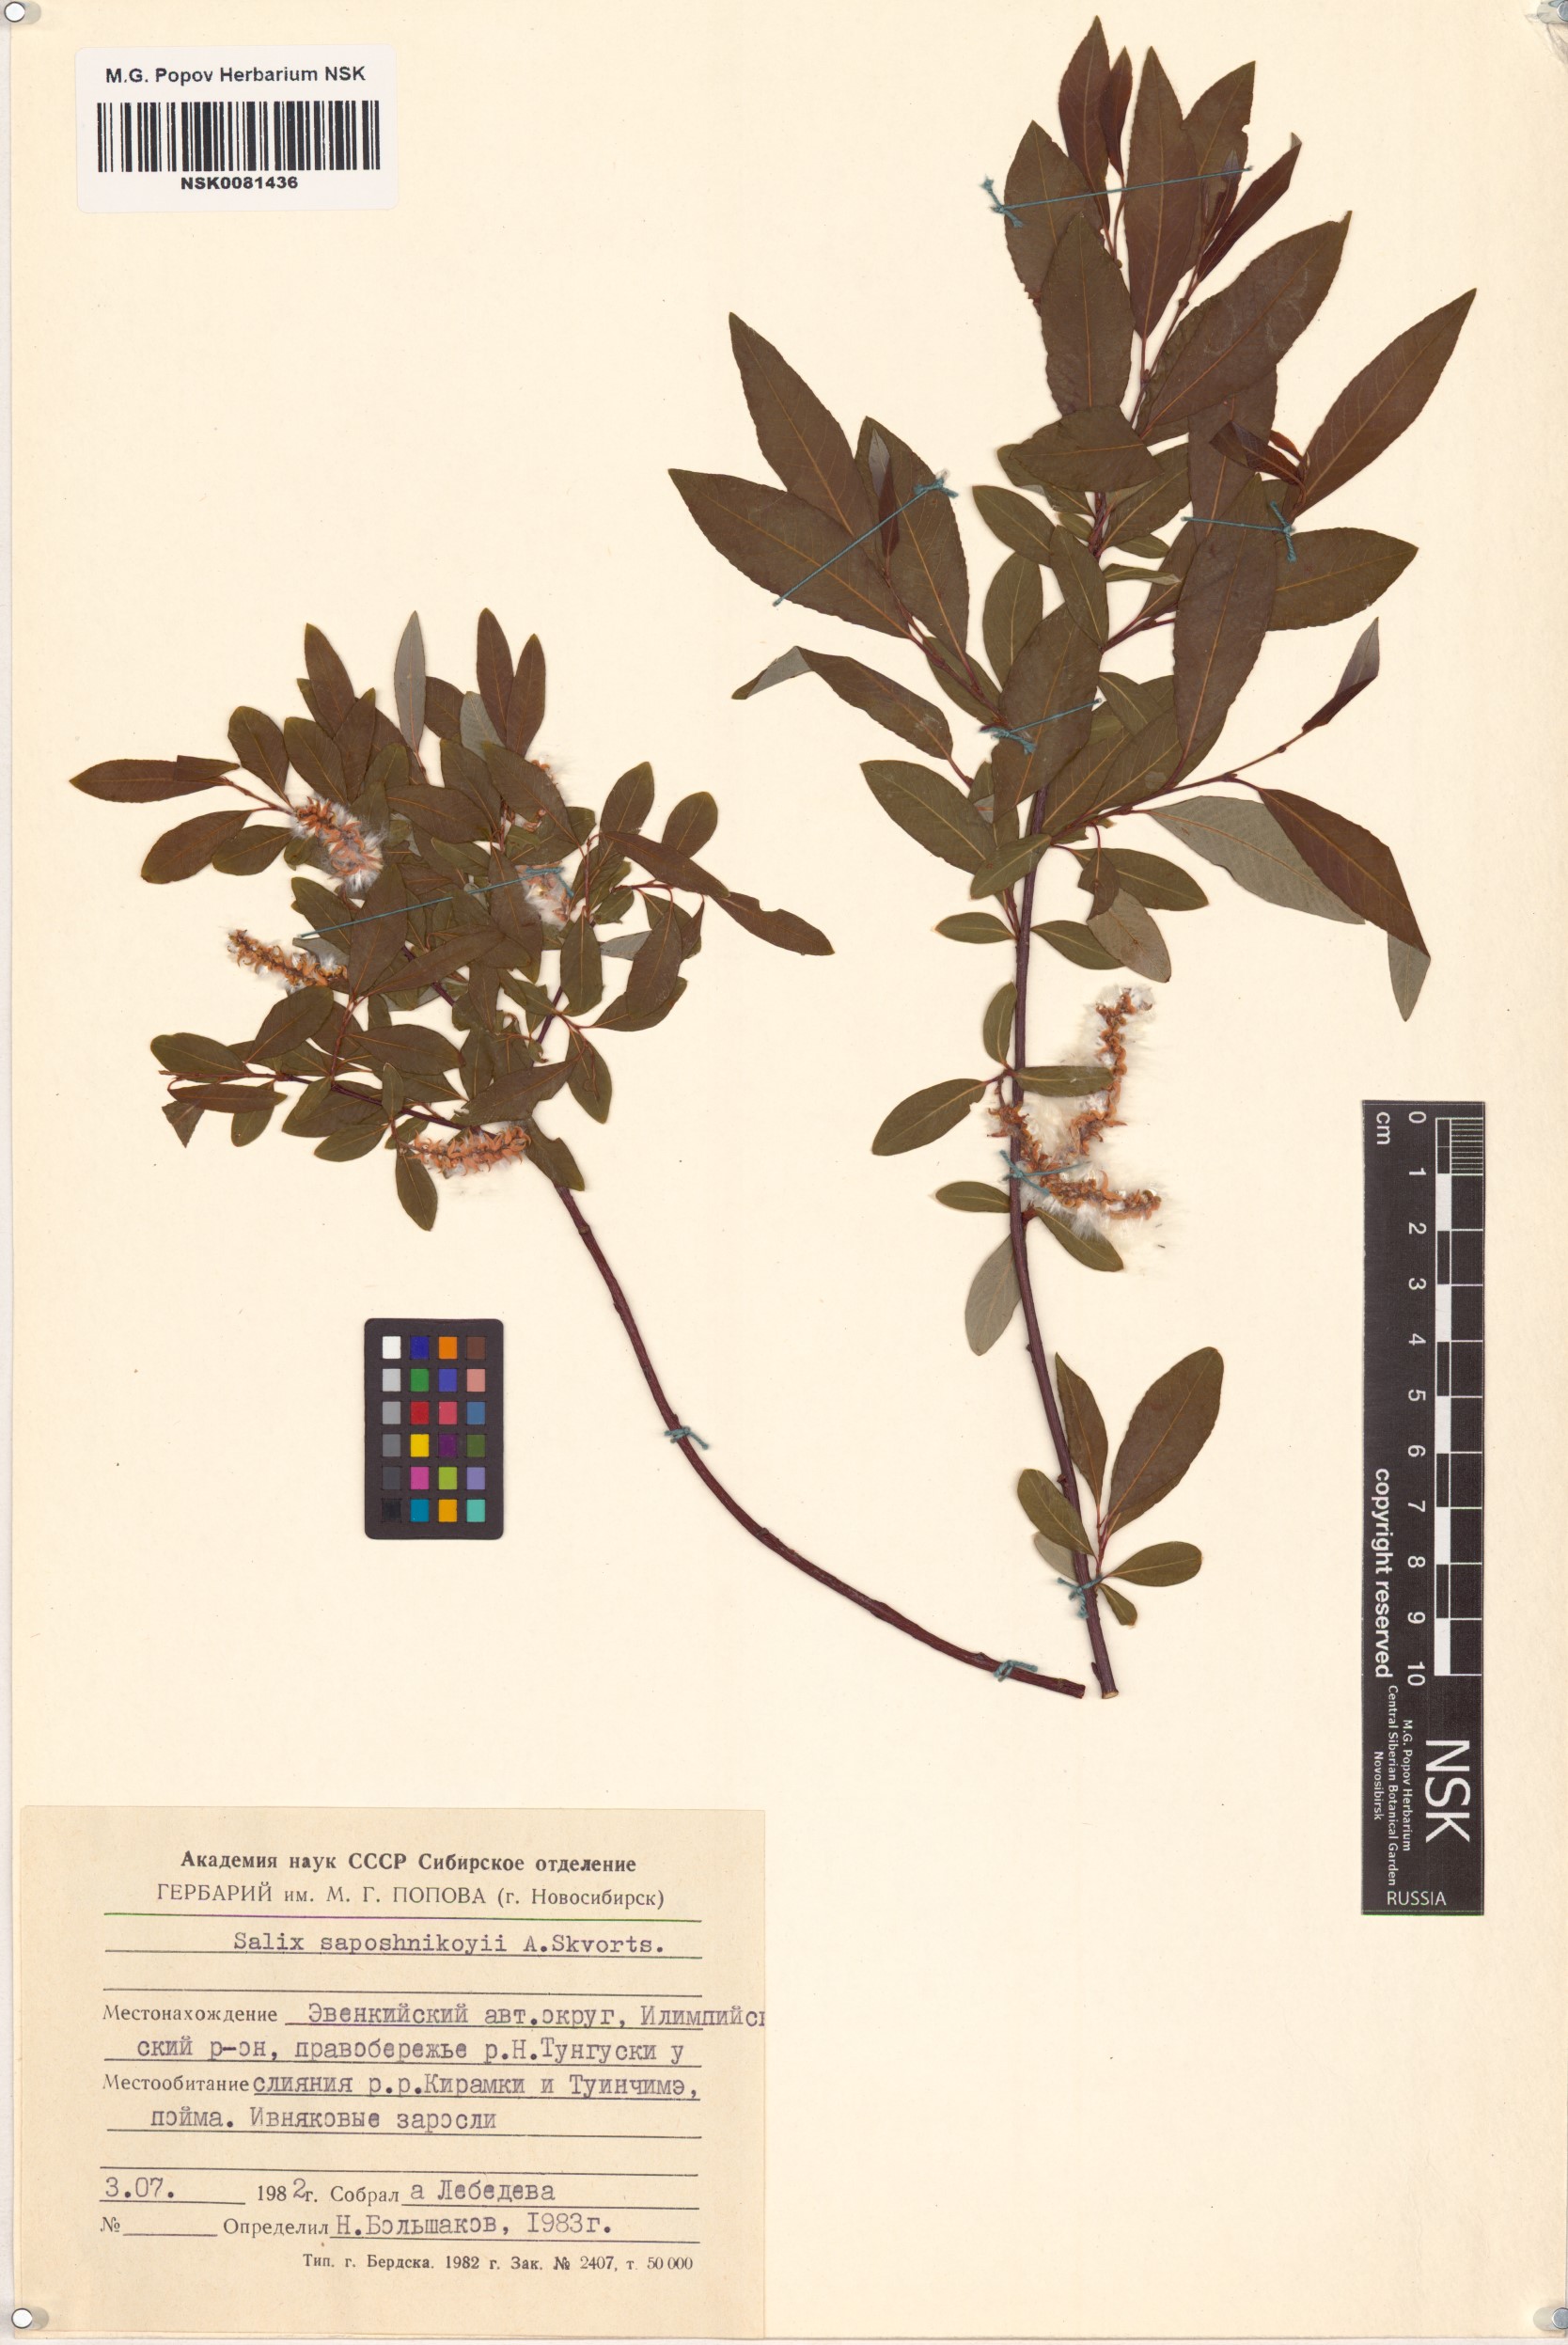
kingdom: Plantae
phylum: Tracheophyta
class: Magnoliopsida
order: Malpighiales
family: Salicaceae
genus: Salix
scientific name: Salix saposhnikovii
